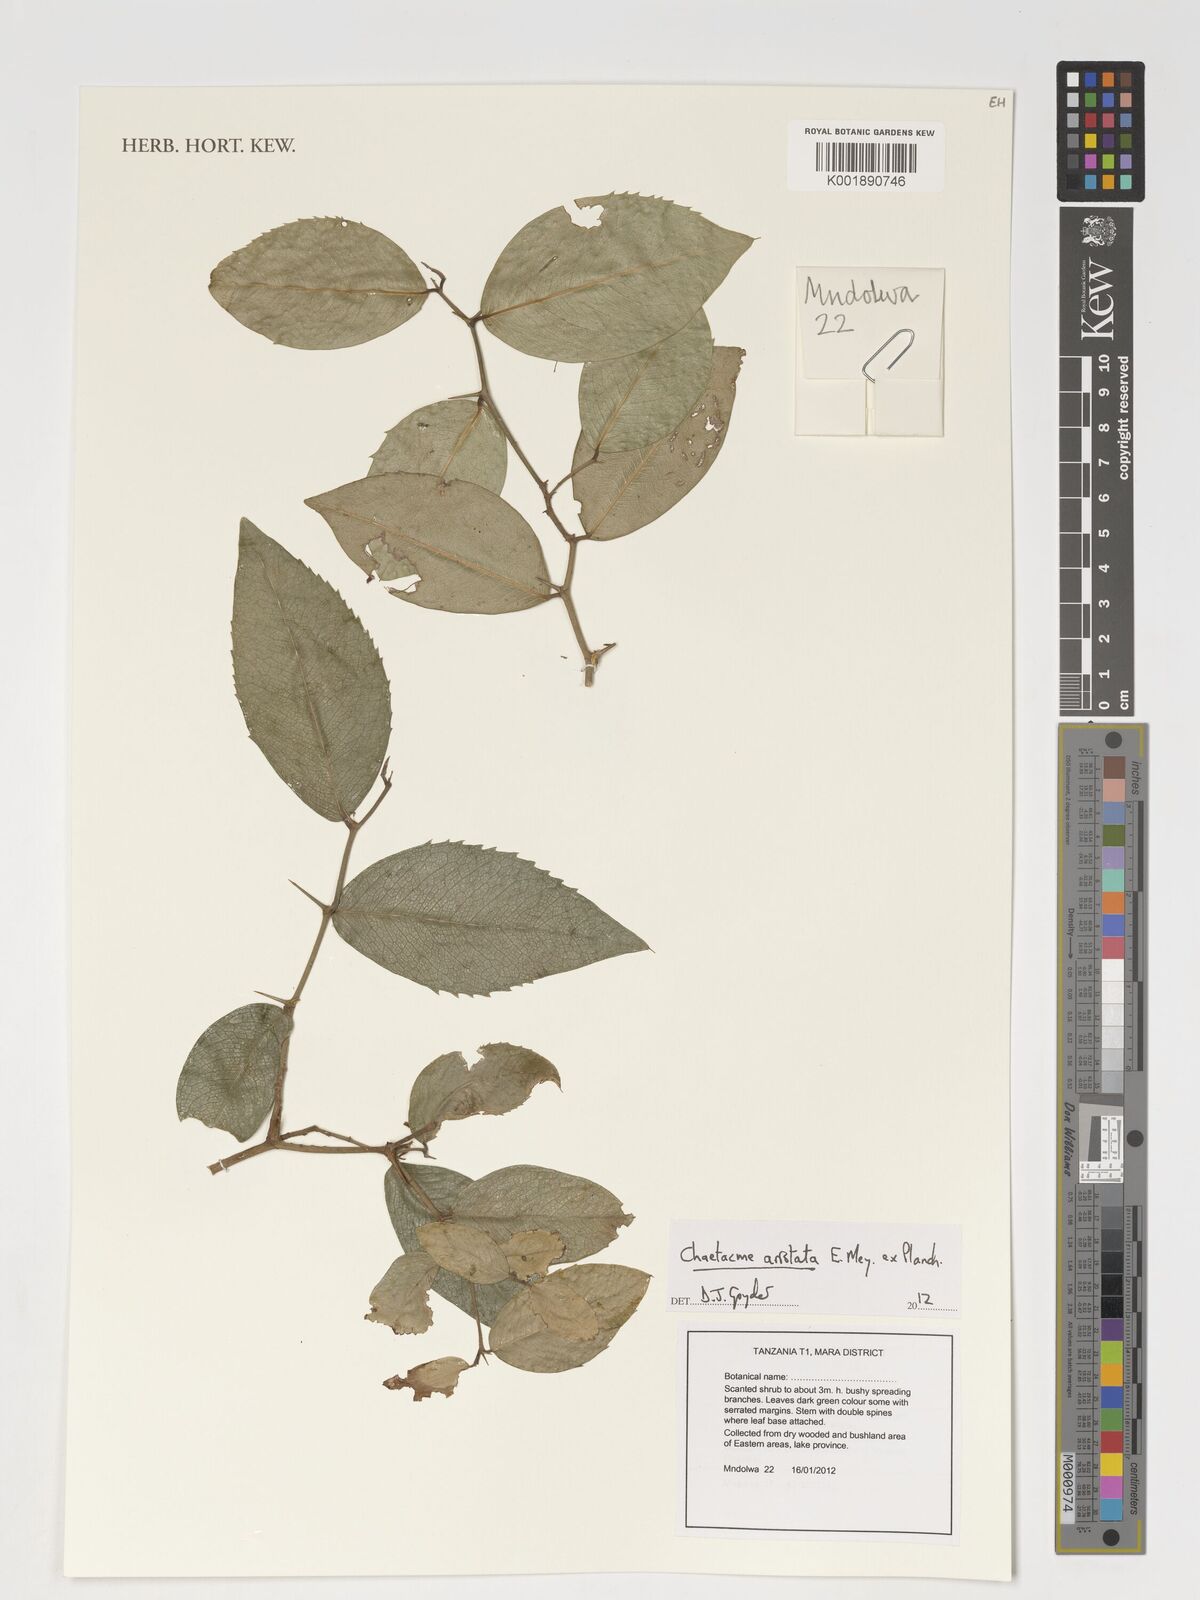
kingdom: Plantae
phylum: Tracheophyta
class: Magnoliopsida
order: Rosales
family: Cannabaceae
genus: Chaetachme
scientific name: Chaetachme aristata
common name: Thorny elm
